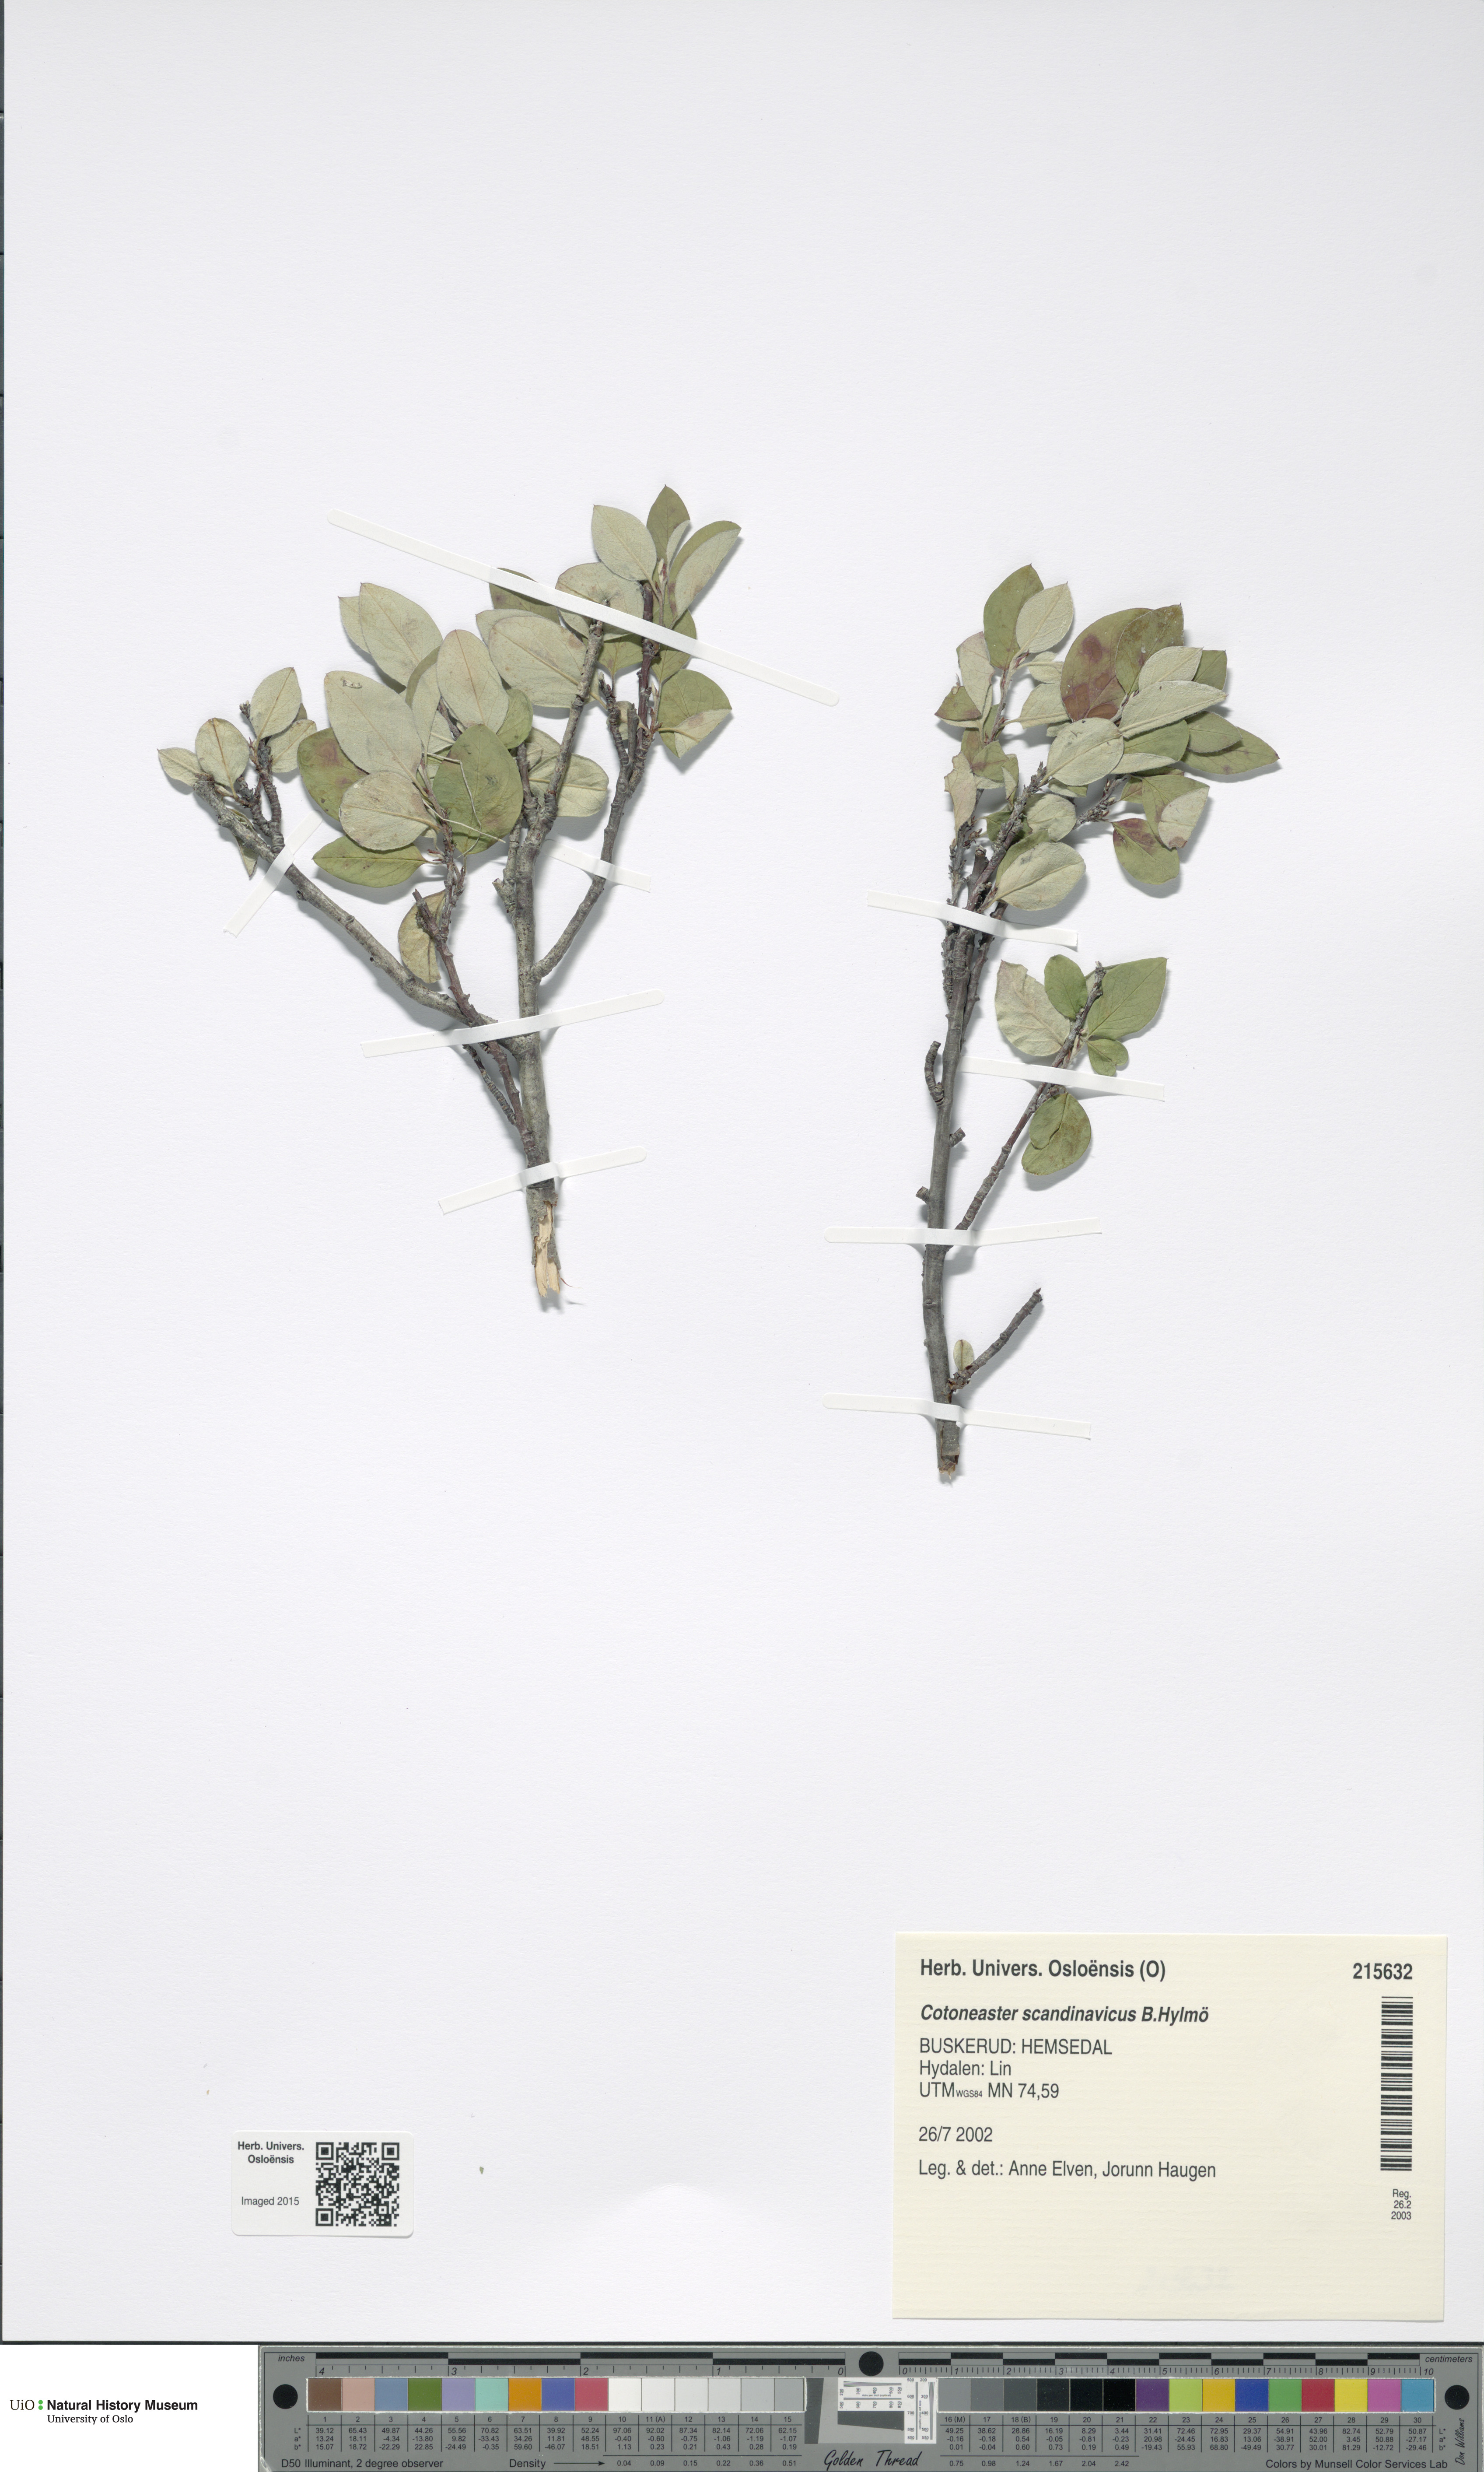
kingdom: Plantae
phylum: Tracheophyta
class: Magnoliopsida
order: Rosales
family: Rosaceae
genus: Cotoneaster
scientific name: Cotoneaster integerrimus
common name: Wild cotoneaster
